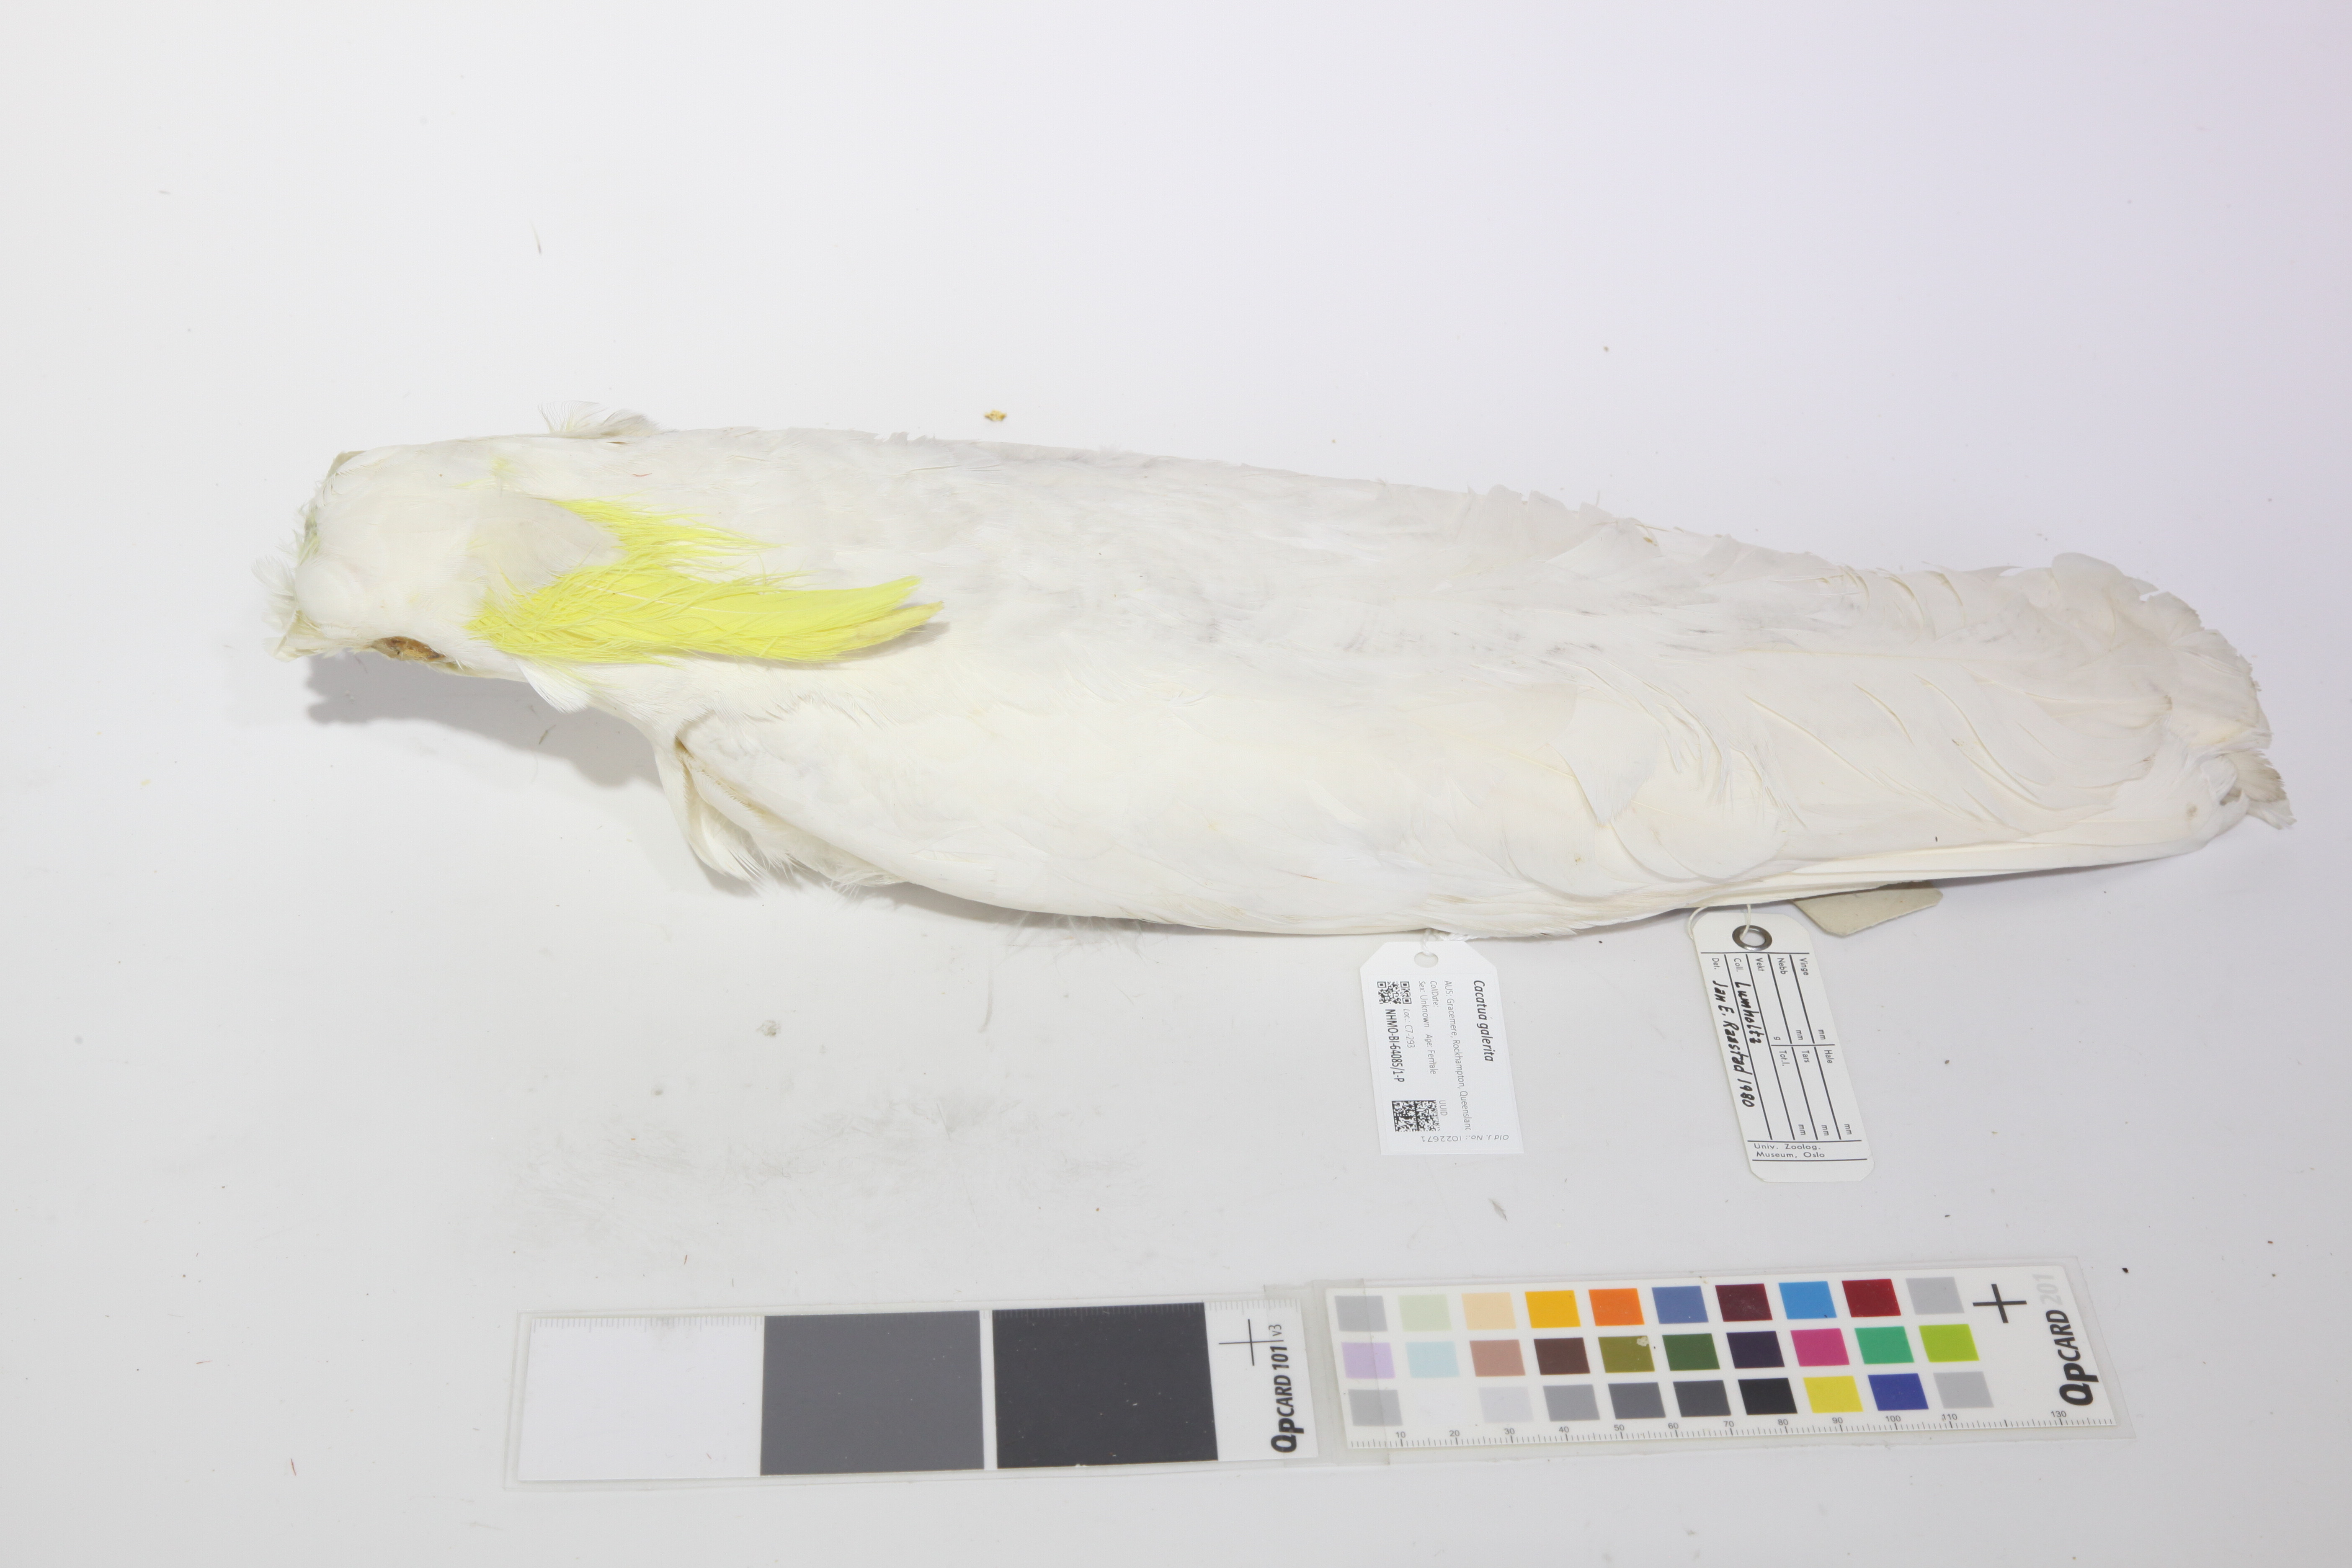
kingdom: Animalia
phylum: Chordata
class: Aves
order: Psittaciformes
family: Psittacidae
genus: Cacatua
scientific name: Cacatua galerita
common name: Sulphur-crested cockatoo
